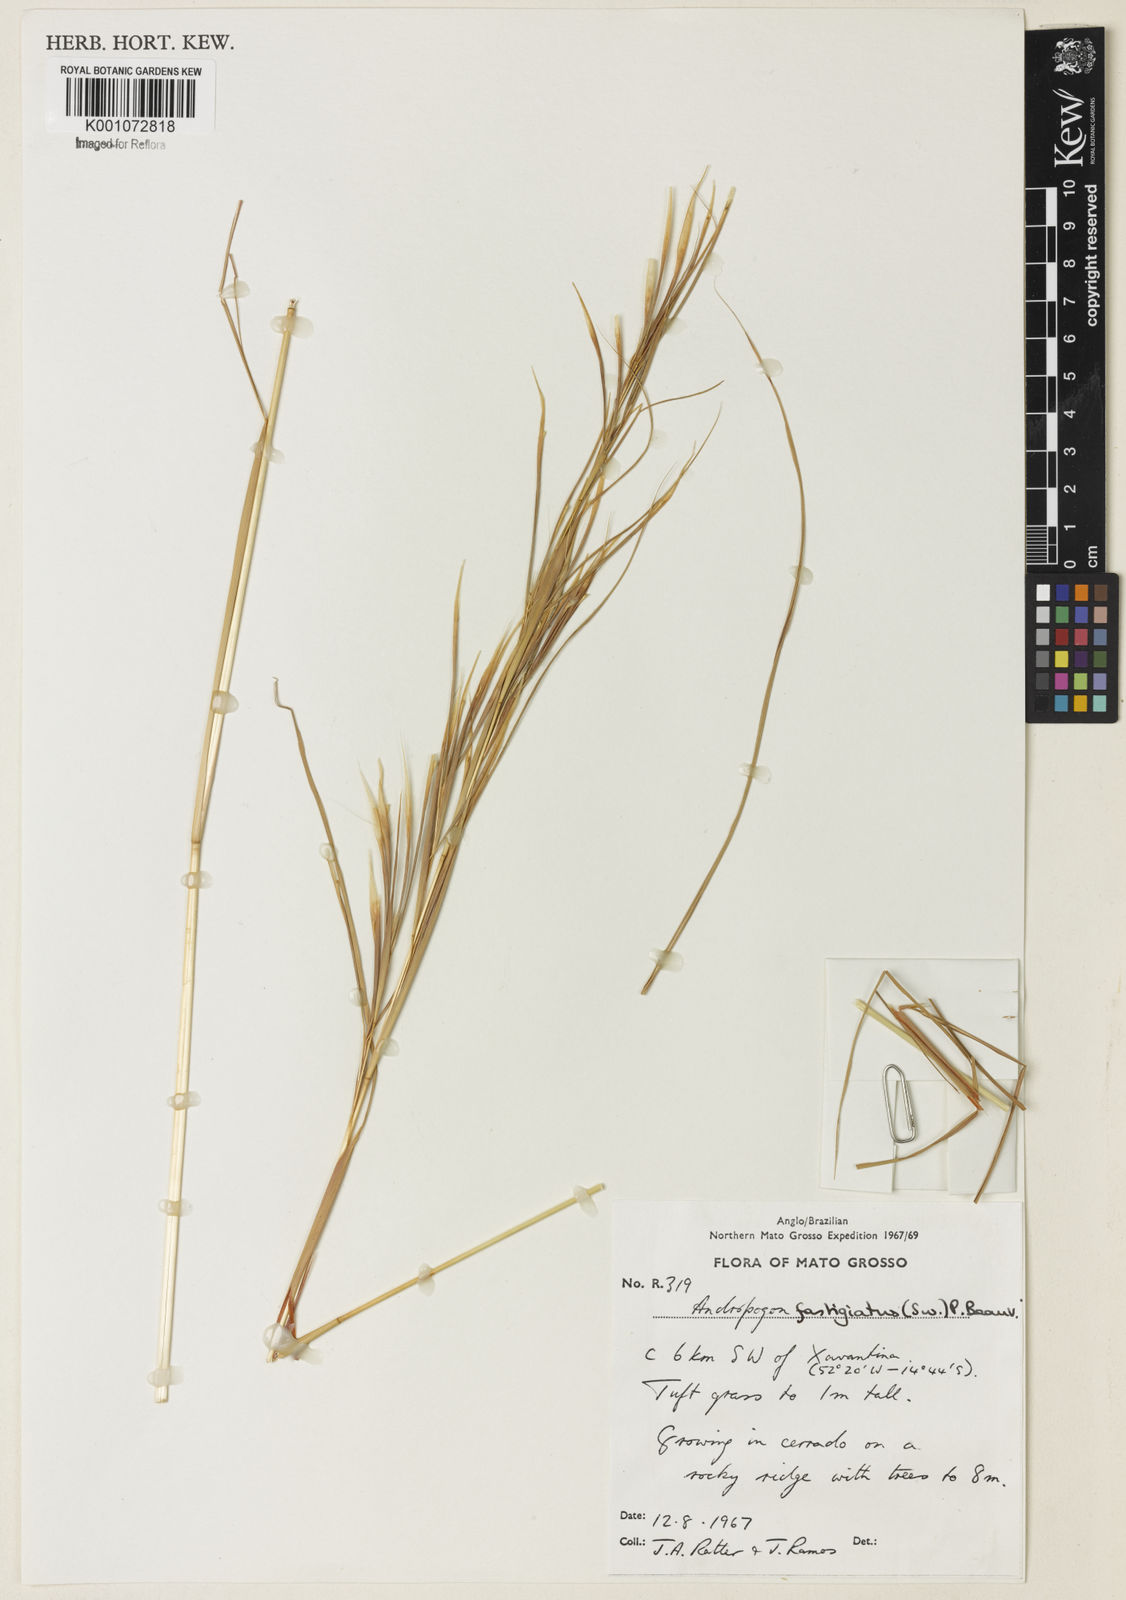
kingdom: Plantae
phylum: Tracheophyta
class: Liliopsida
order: Poales
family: Poaceae
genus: Diectomis
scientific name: Diectomis fastigiata
